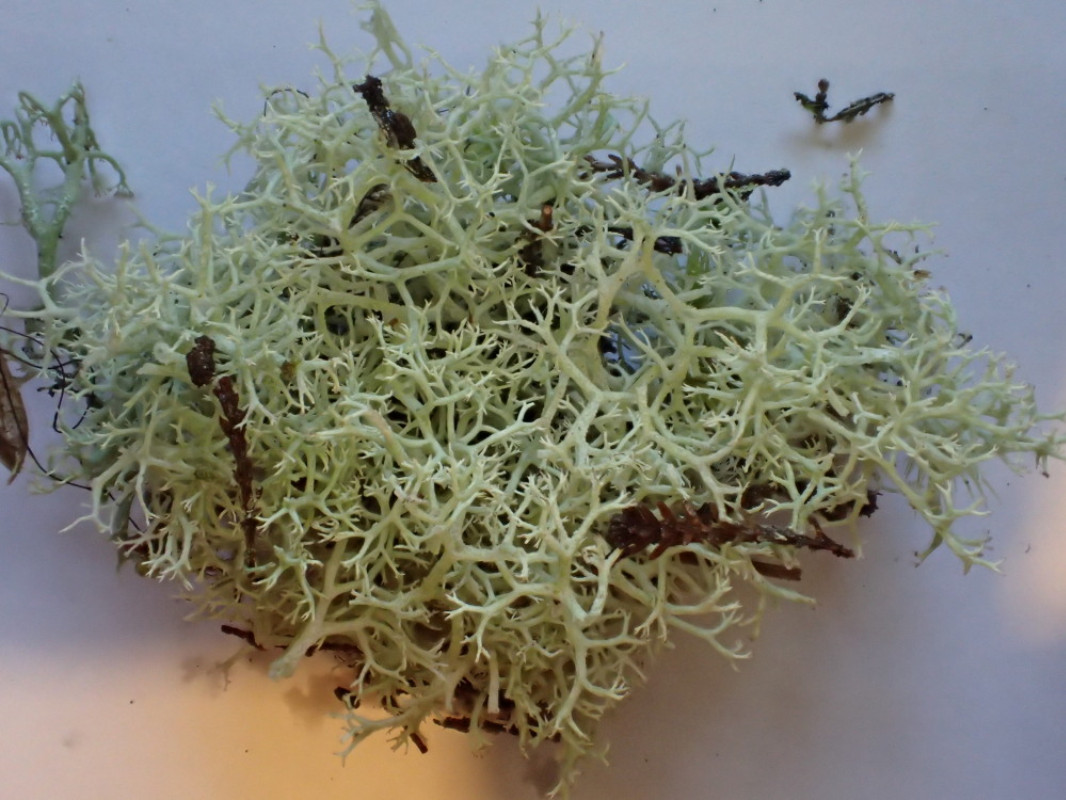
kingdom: Fungi
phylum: Ascomycota
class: Lecanoromycetes
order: Lecanorales
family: Cladoniaceae
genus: Cladonia
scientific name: Cladonia portentosa
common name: hede-rensdyrlav
